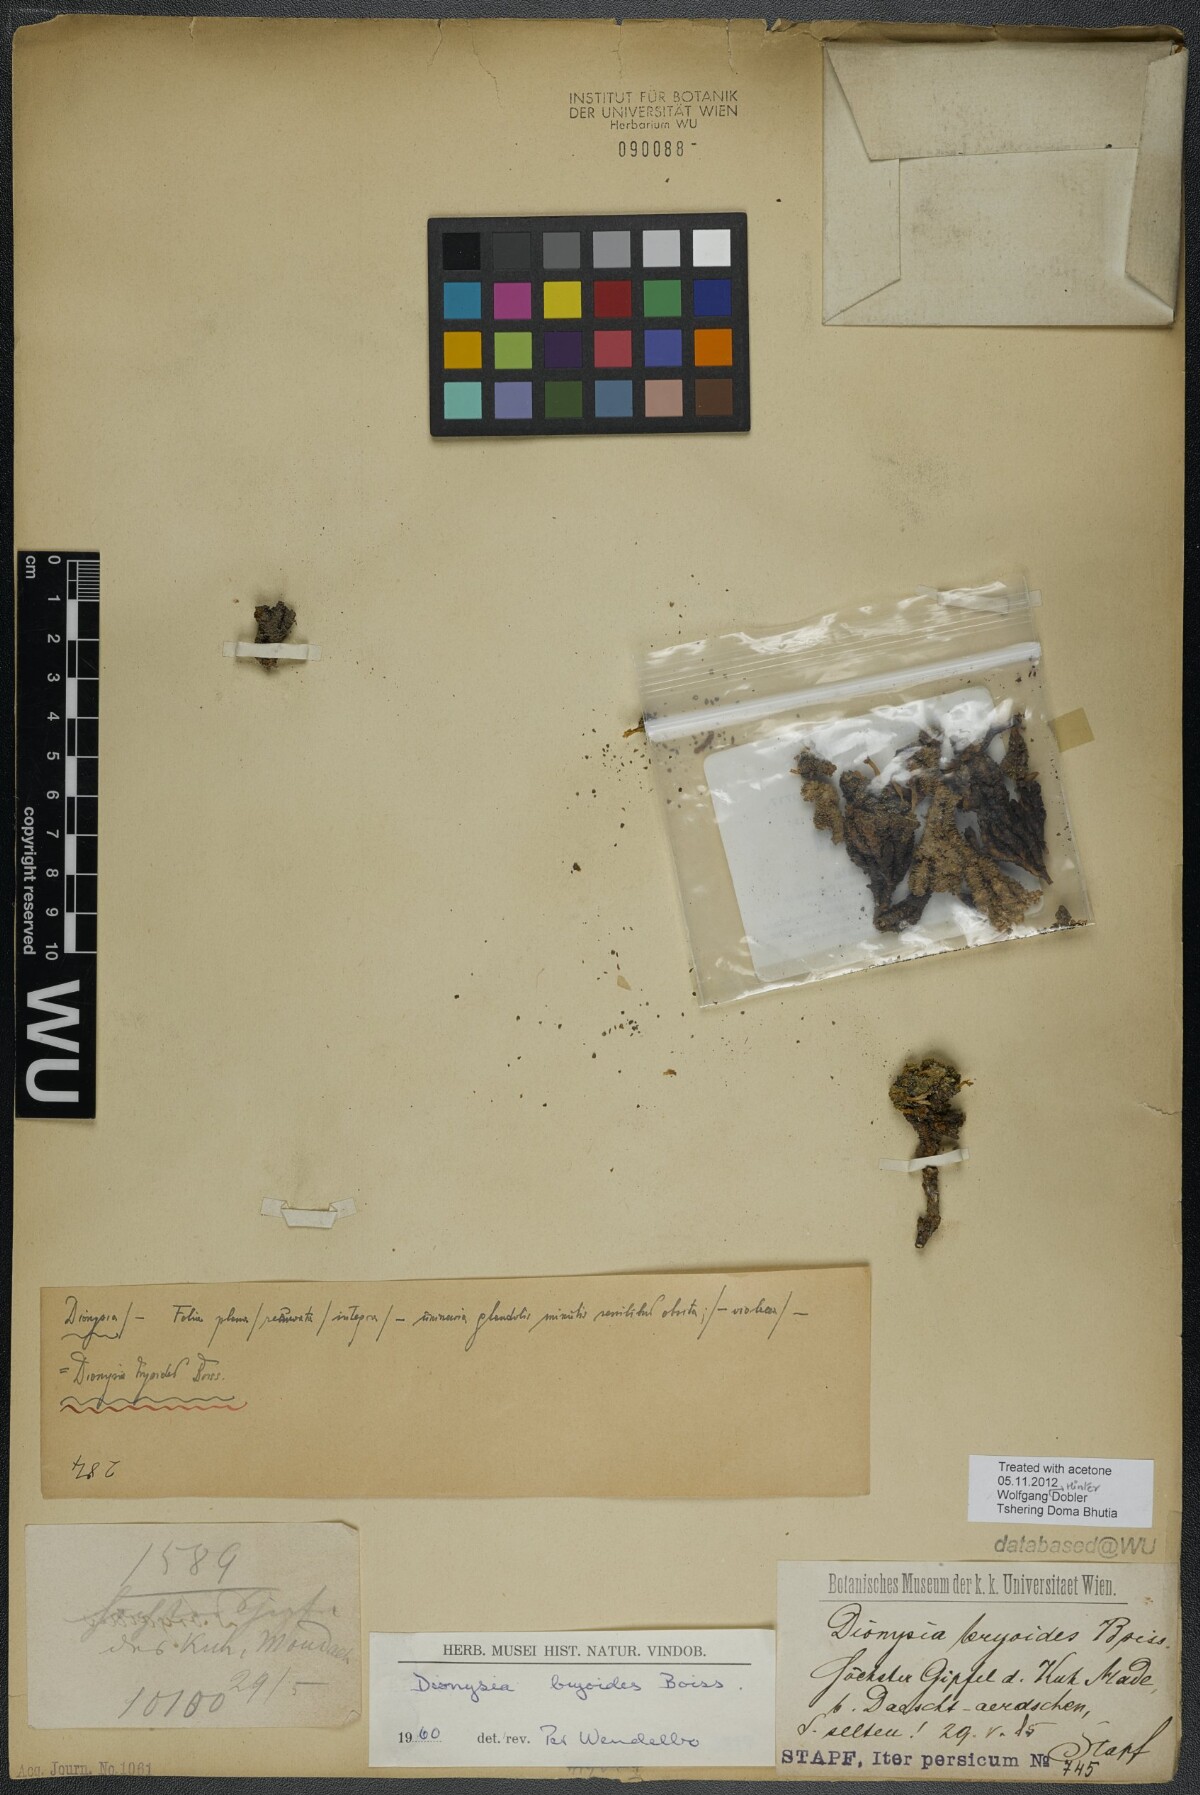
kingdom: Plantae
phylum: Tracheophyta
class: Magnoliopsida
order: Ericales
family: Primulaceae
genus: Dionysia
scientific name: Dionysia bryoides
